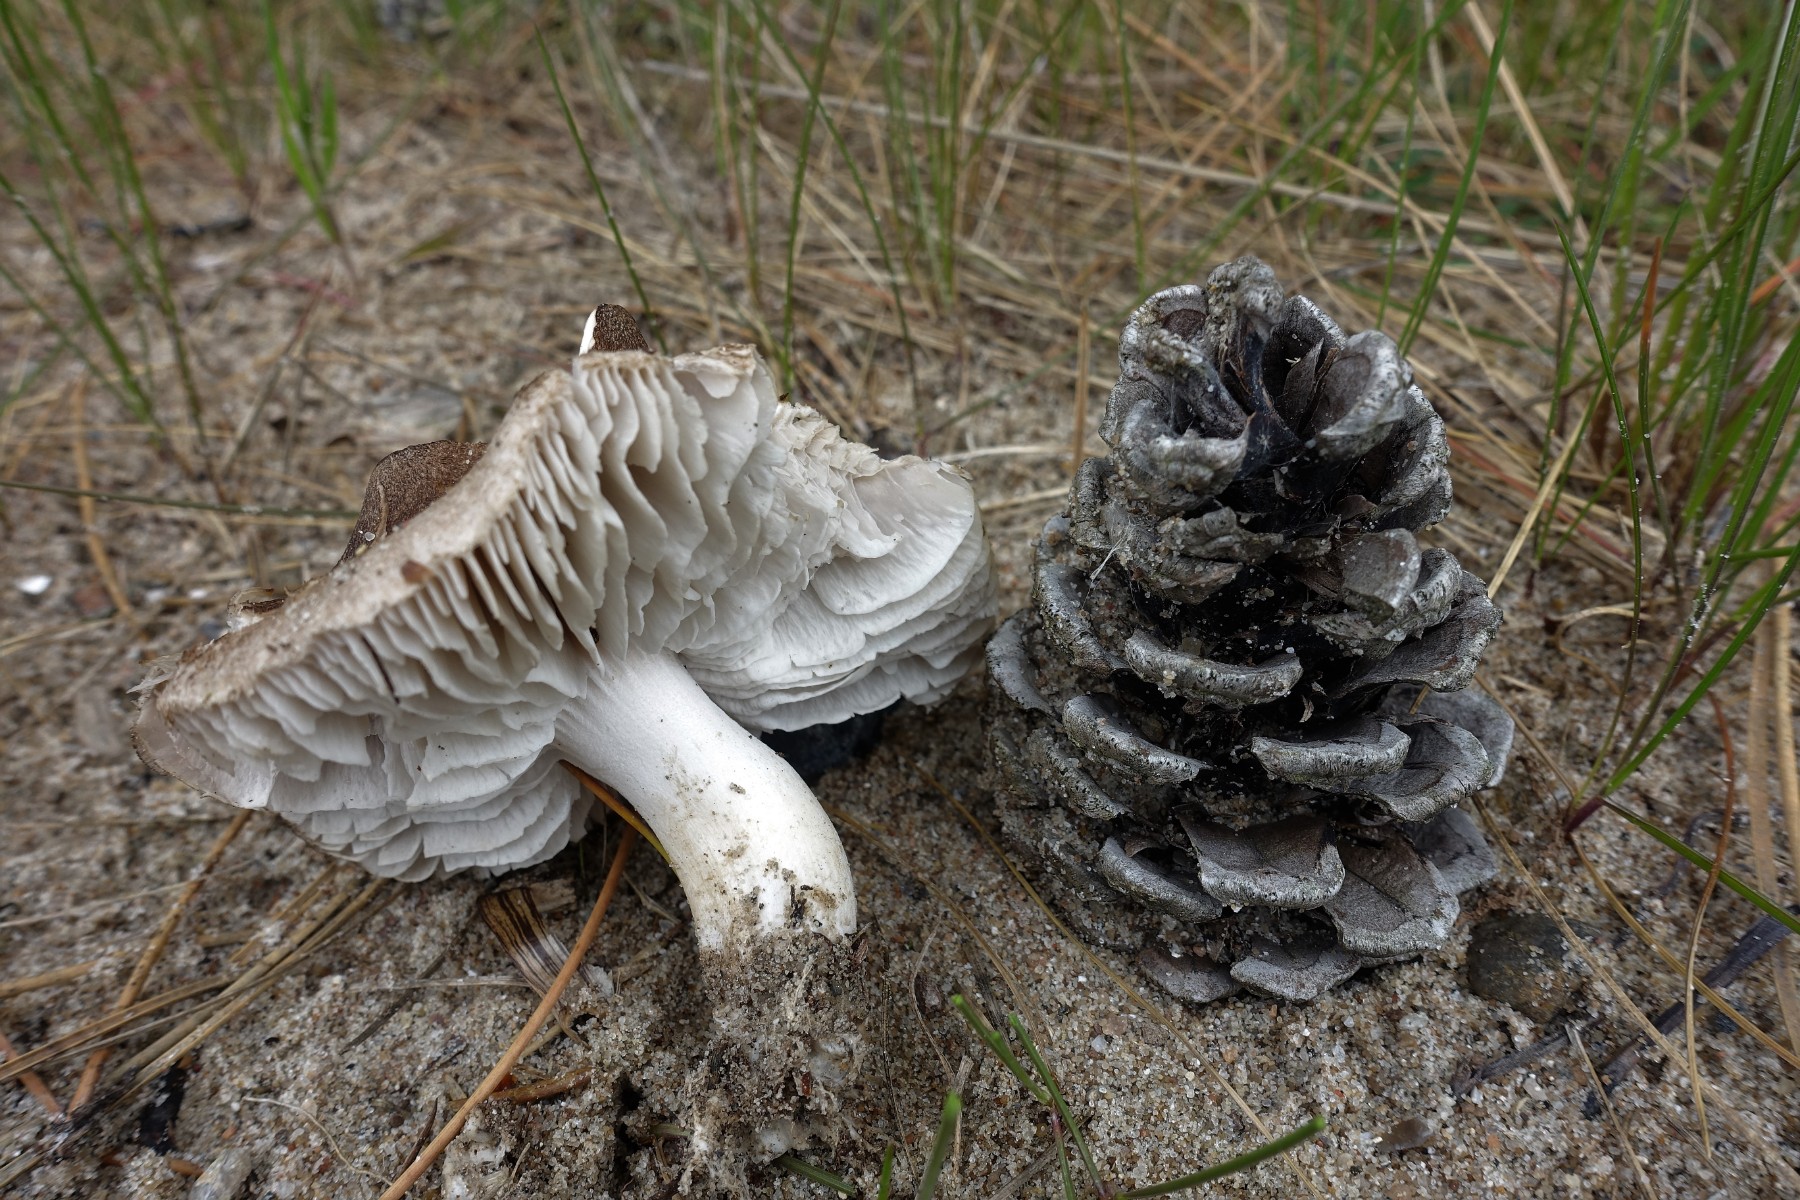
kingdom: Fungi
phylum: Basidiomycota
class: Agaricomycetes
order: Agaricales
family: Tricholomataceae
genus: Tricholoma
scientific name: Tricholoma terreum
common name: jordfarvet ridderhat
